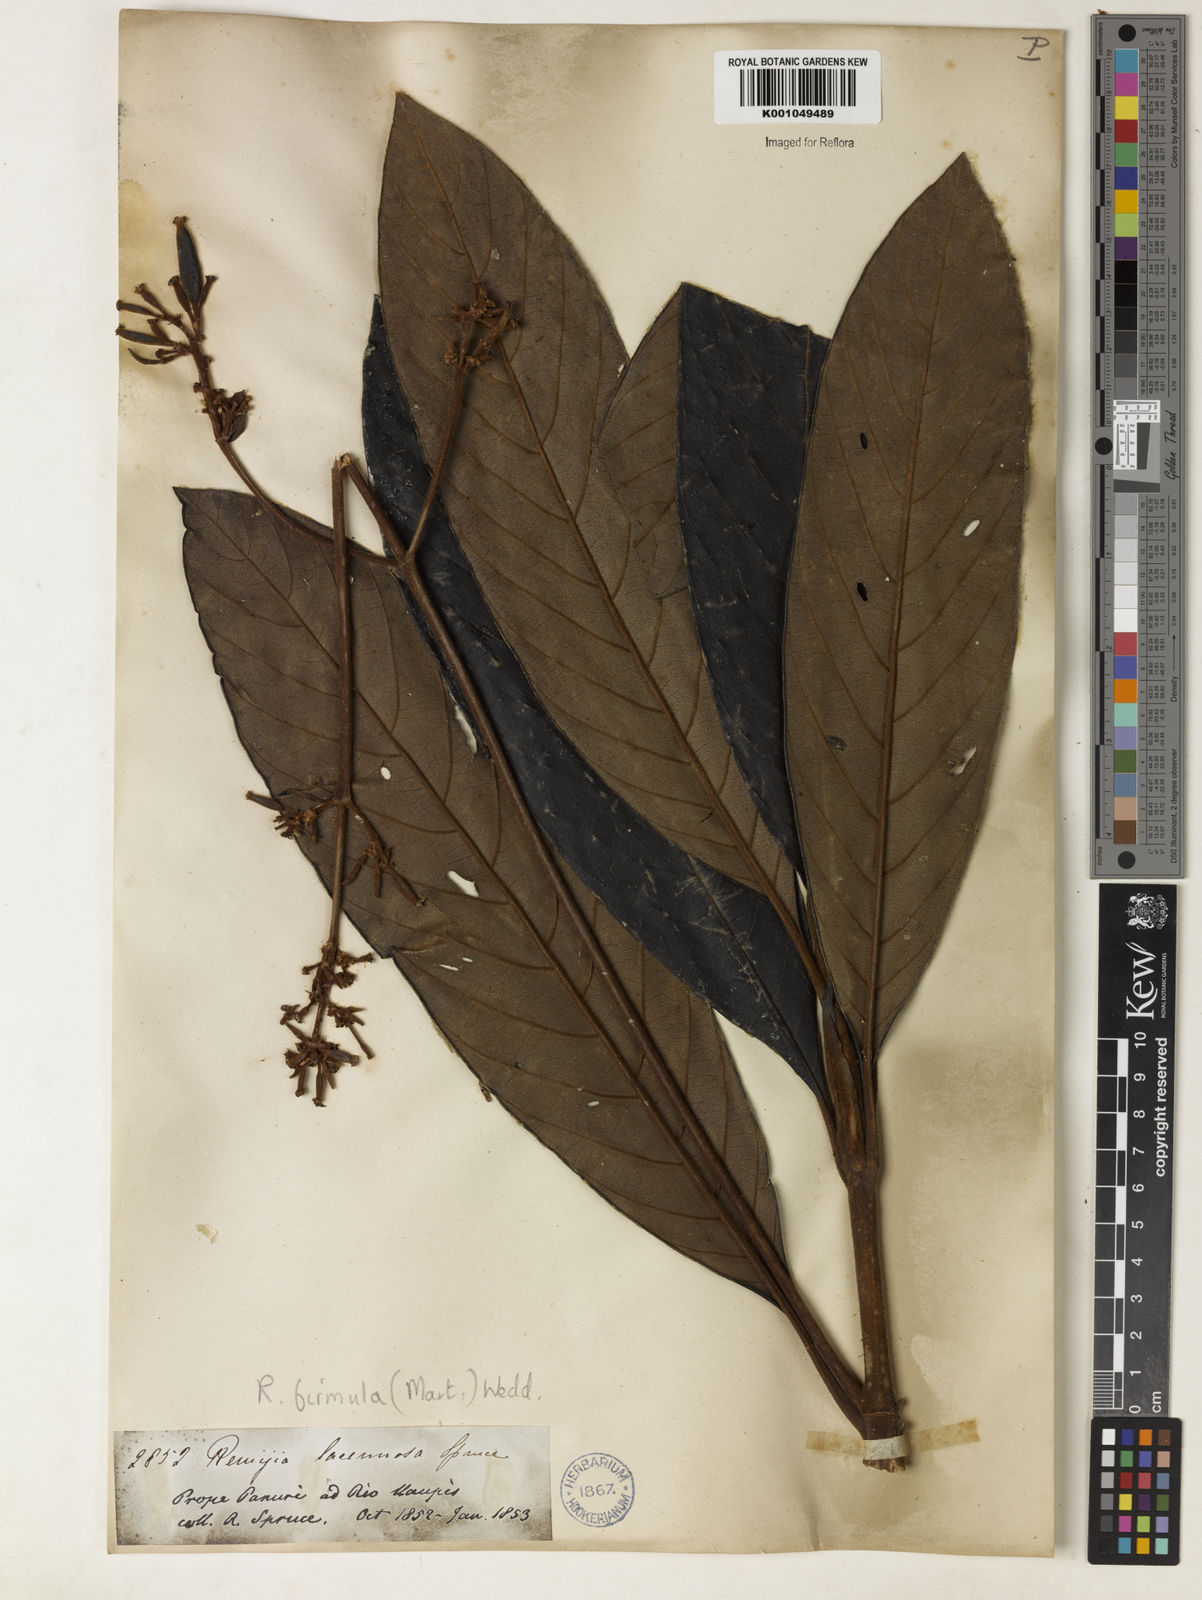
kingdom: Plantae
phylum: Tracheophyta
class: Magnoliopsida
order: Gentianales
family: Rubiaceae
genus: Remijia
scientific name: Remijia firmula
